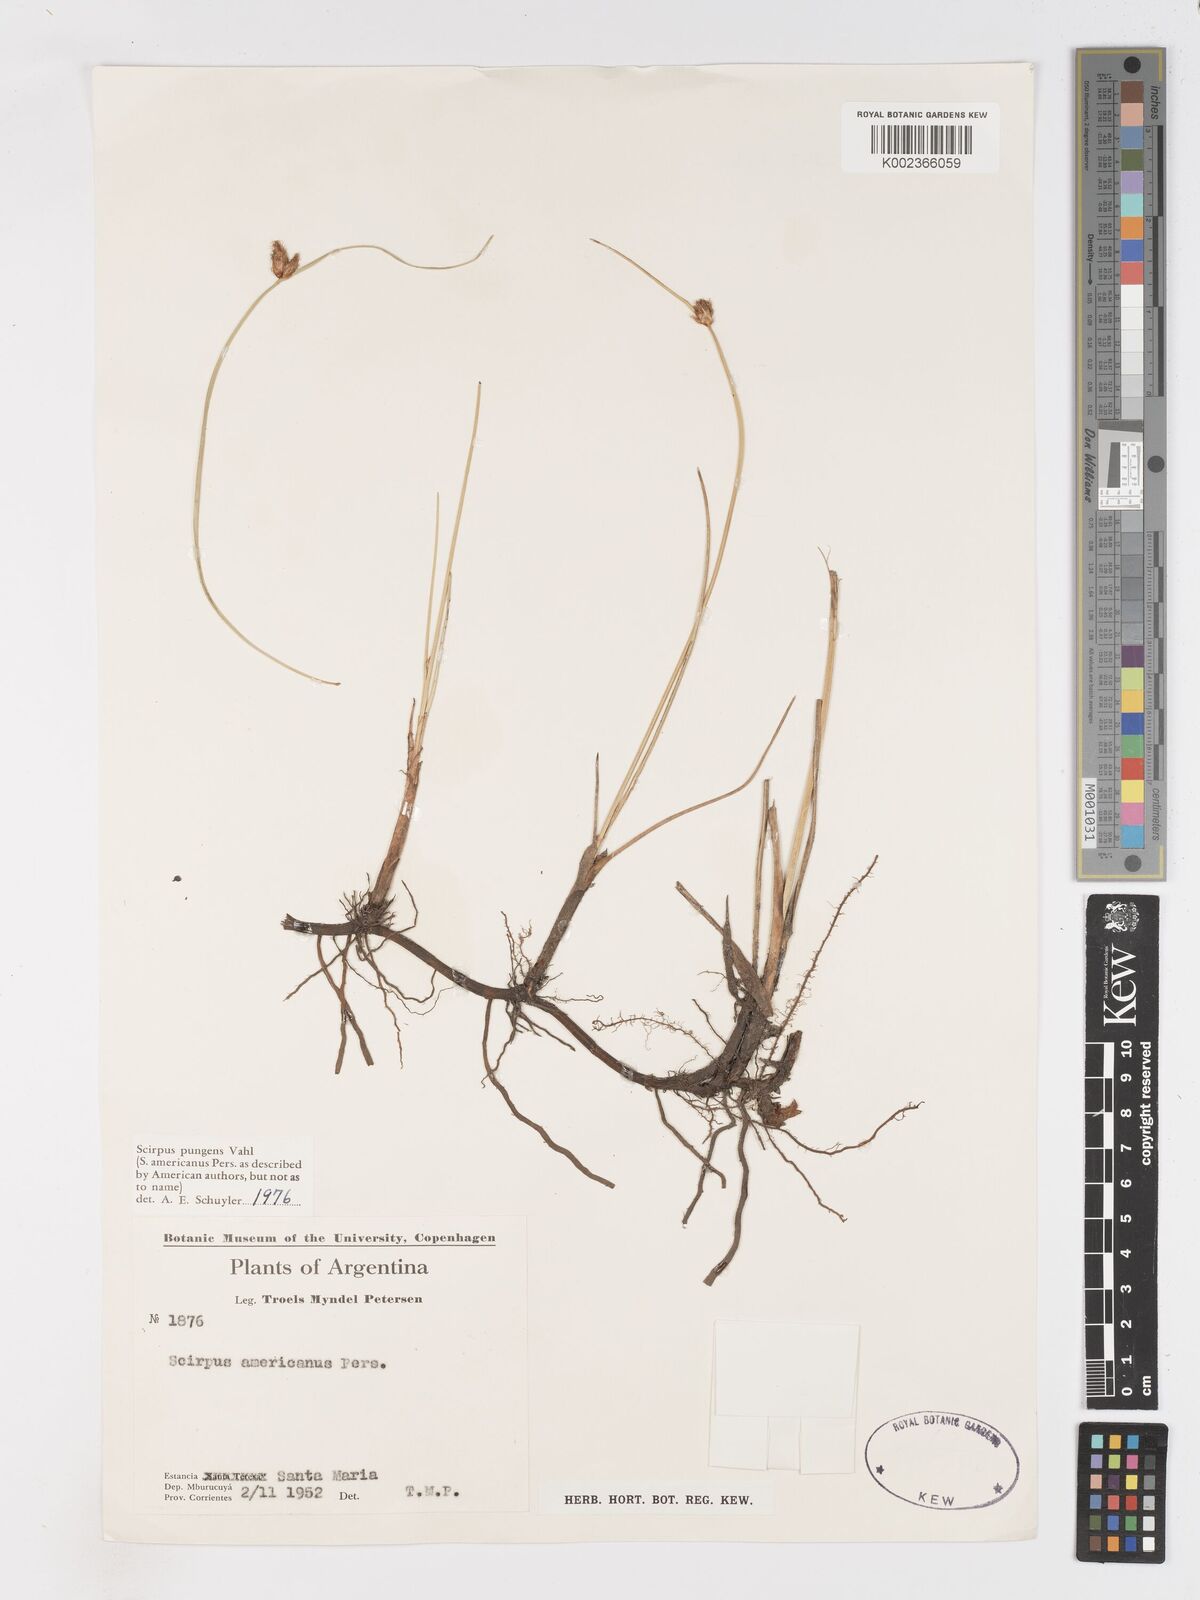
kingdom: Plantae
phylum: Tracheophyta
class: Liliopsida
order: Poales
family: Cyperaceae
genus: Schoenoplectus
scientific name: Schoenoplectus
